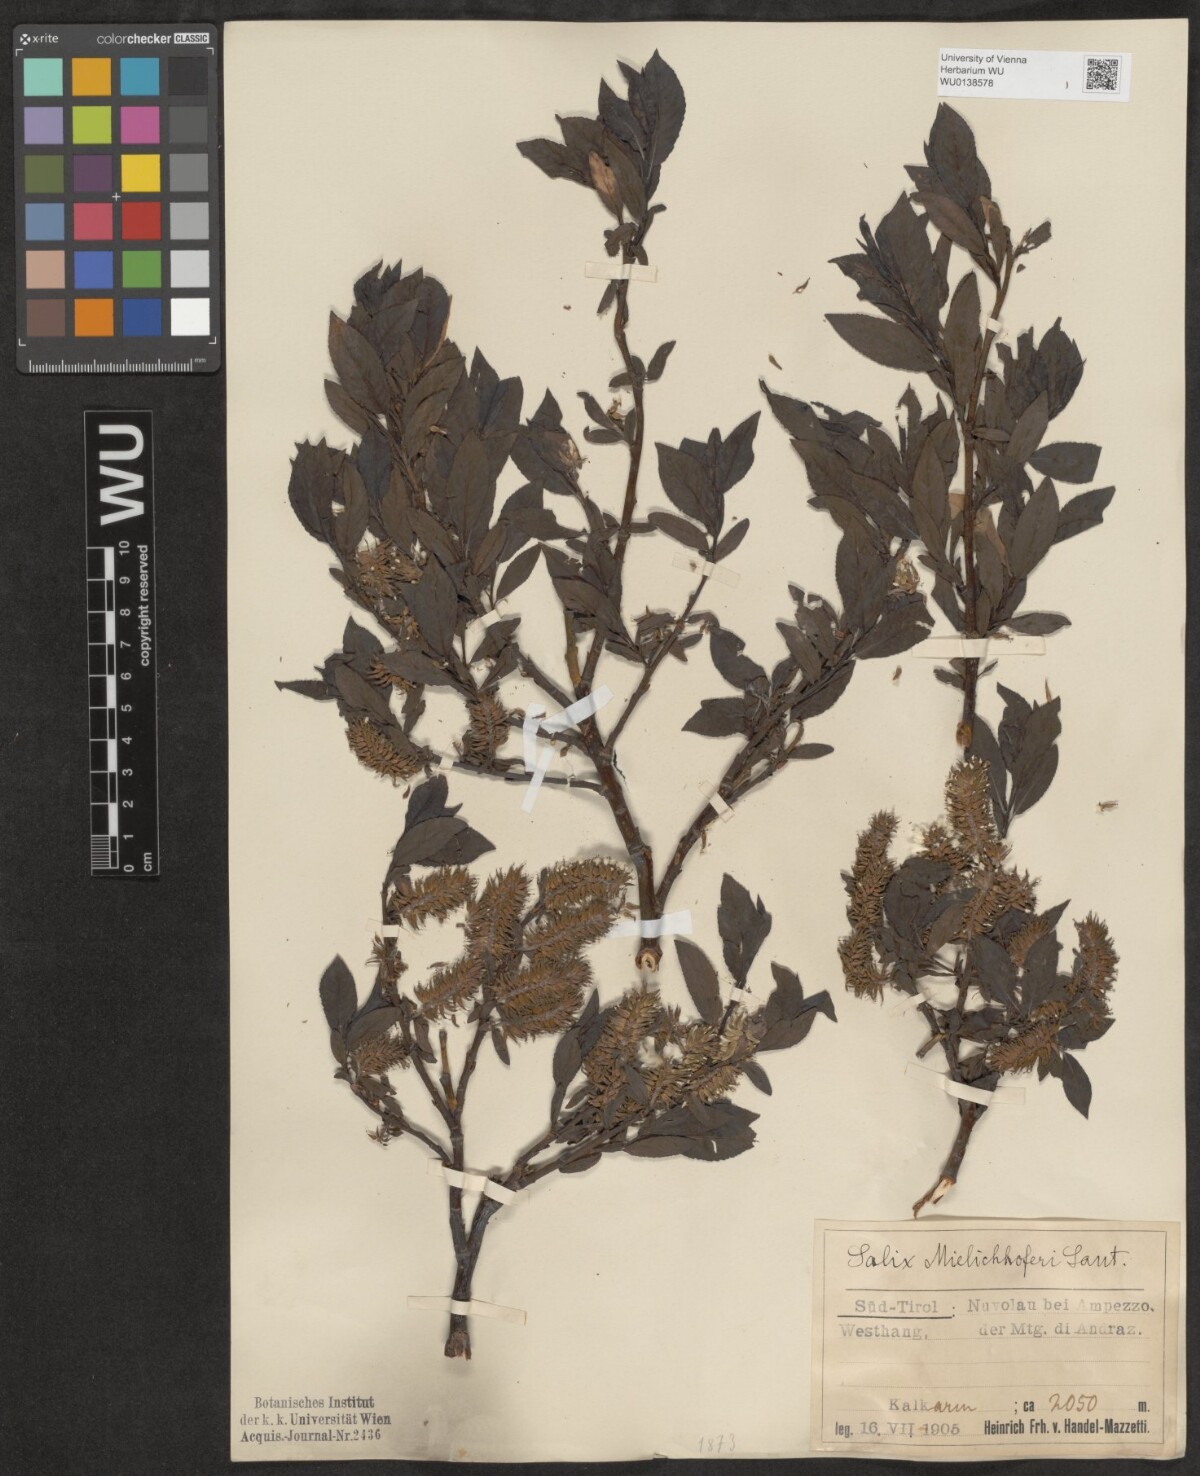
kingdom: Plantae
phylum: Tracheophyta
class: Magnoliopsida
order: Malpighiales
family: Salicaceae
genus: Salix
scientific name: Salix mielichhoferi
